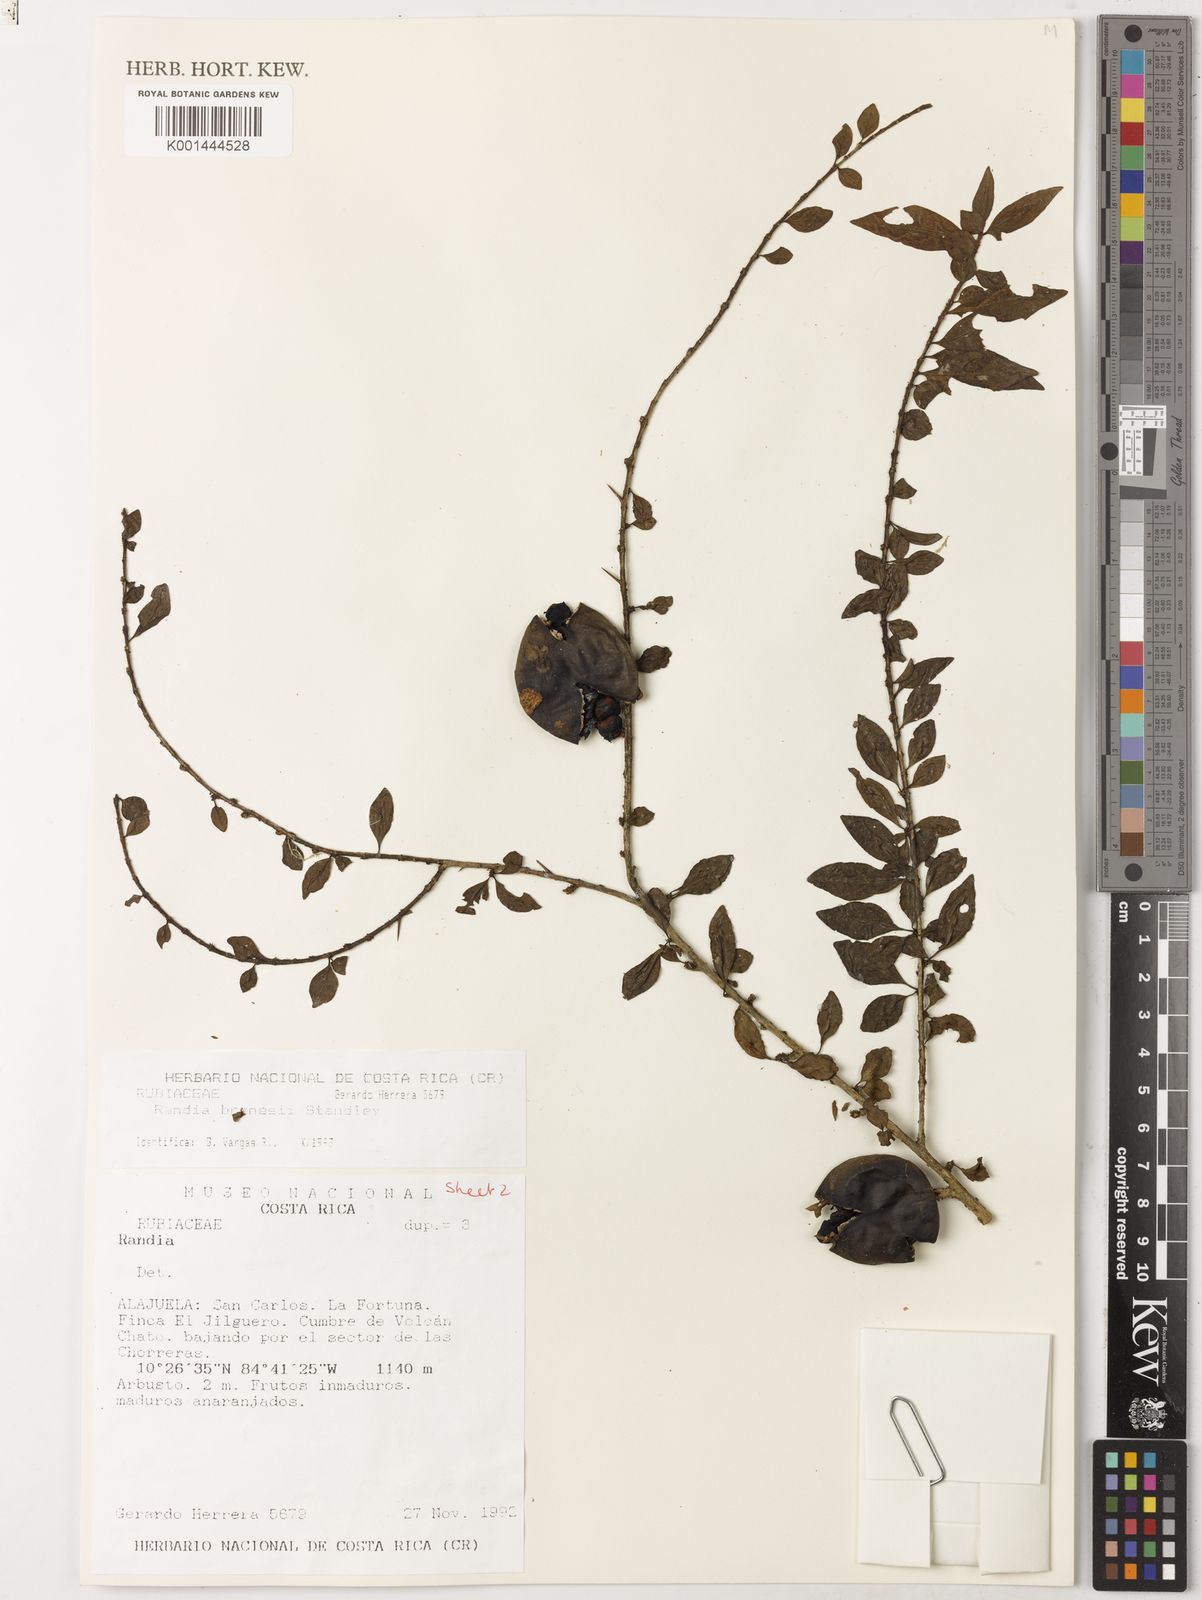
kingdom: Plantae
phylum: Tracheophyta
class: Magnoliopsida
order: Gentianales
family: Rubiaceae
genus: Randia
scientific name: Randia brenesii
